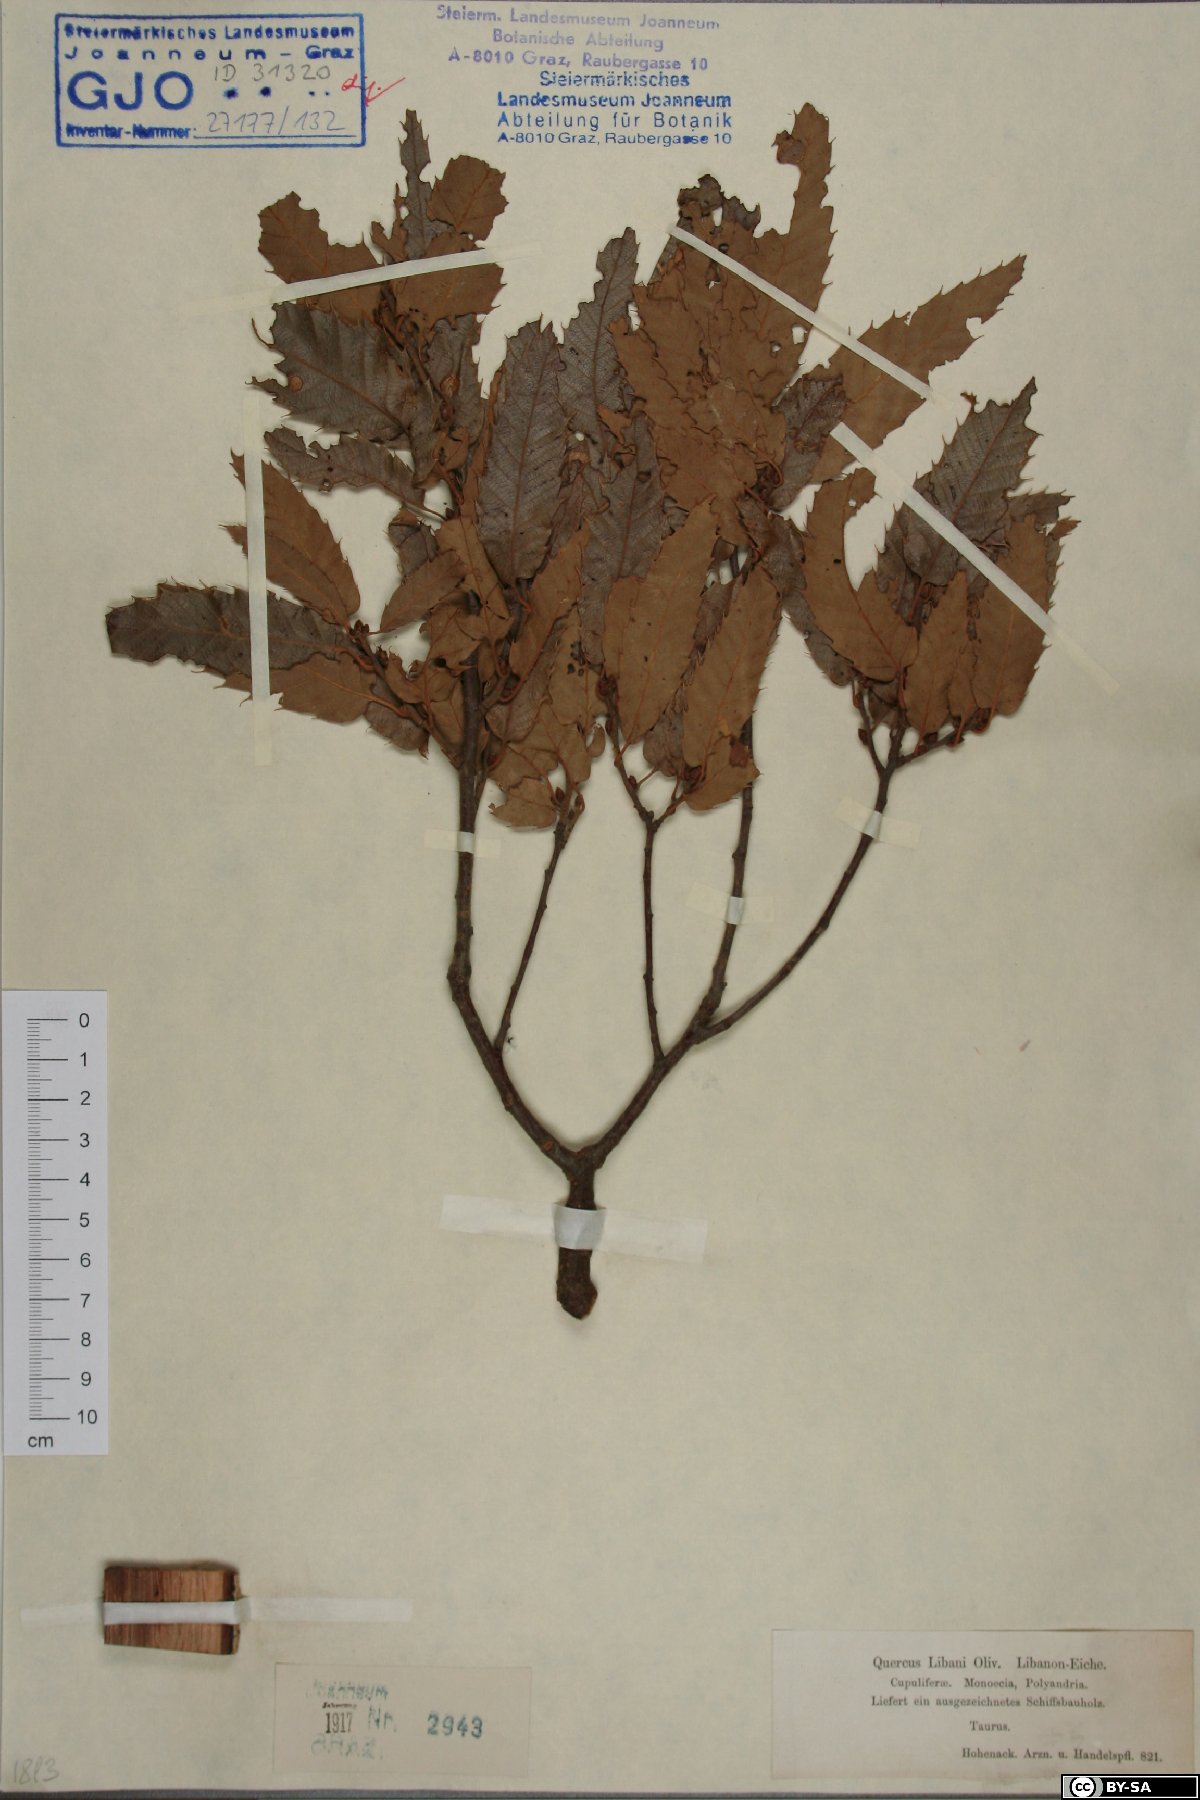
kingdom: Plantae
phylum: Tracheophyta
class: Magnoliopsida
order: Fagales
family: Fagaceae
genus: Quercus
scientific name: Quercus libani
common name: Lebanon oak
